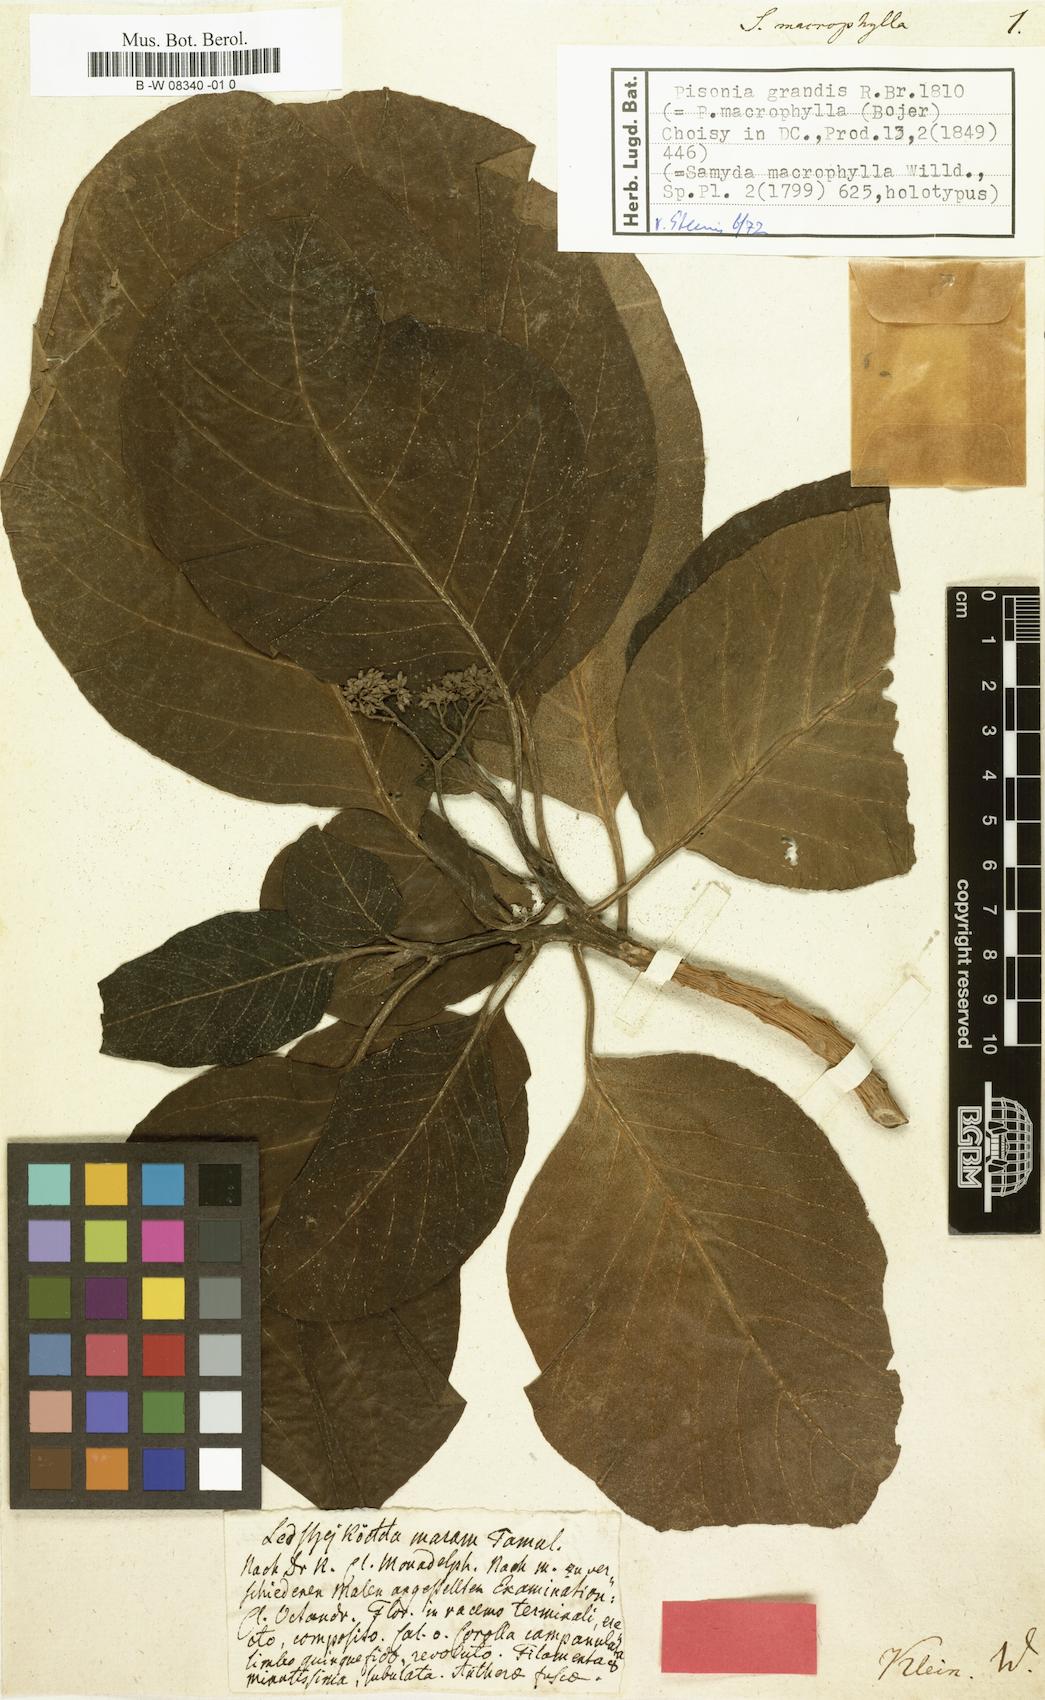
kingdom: Plantae
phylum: Tracheophyta
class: Magnoliopsida
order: Malpighiales
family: Salicaceae
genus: Casearia
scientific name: Casearia grewiifolia
